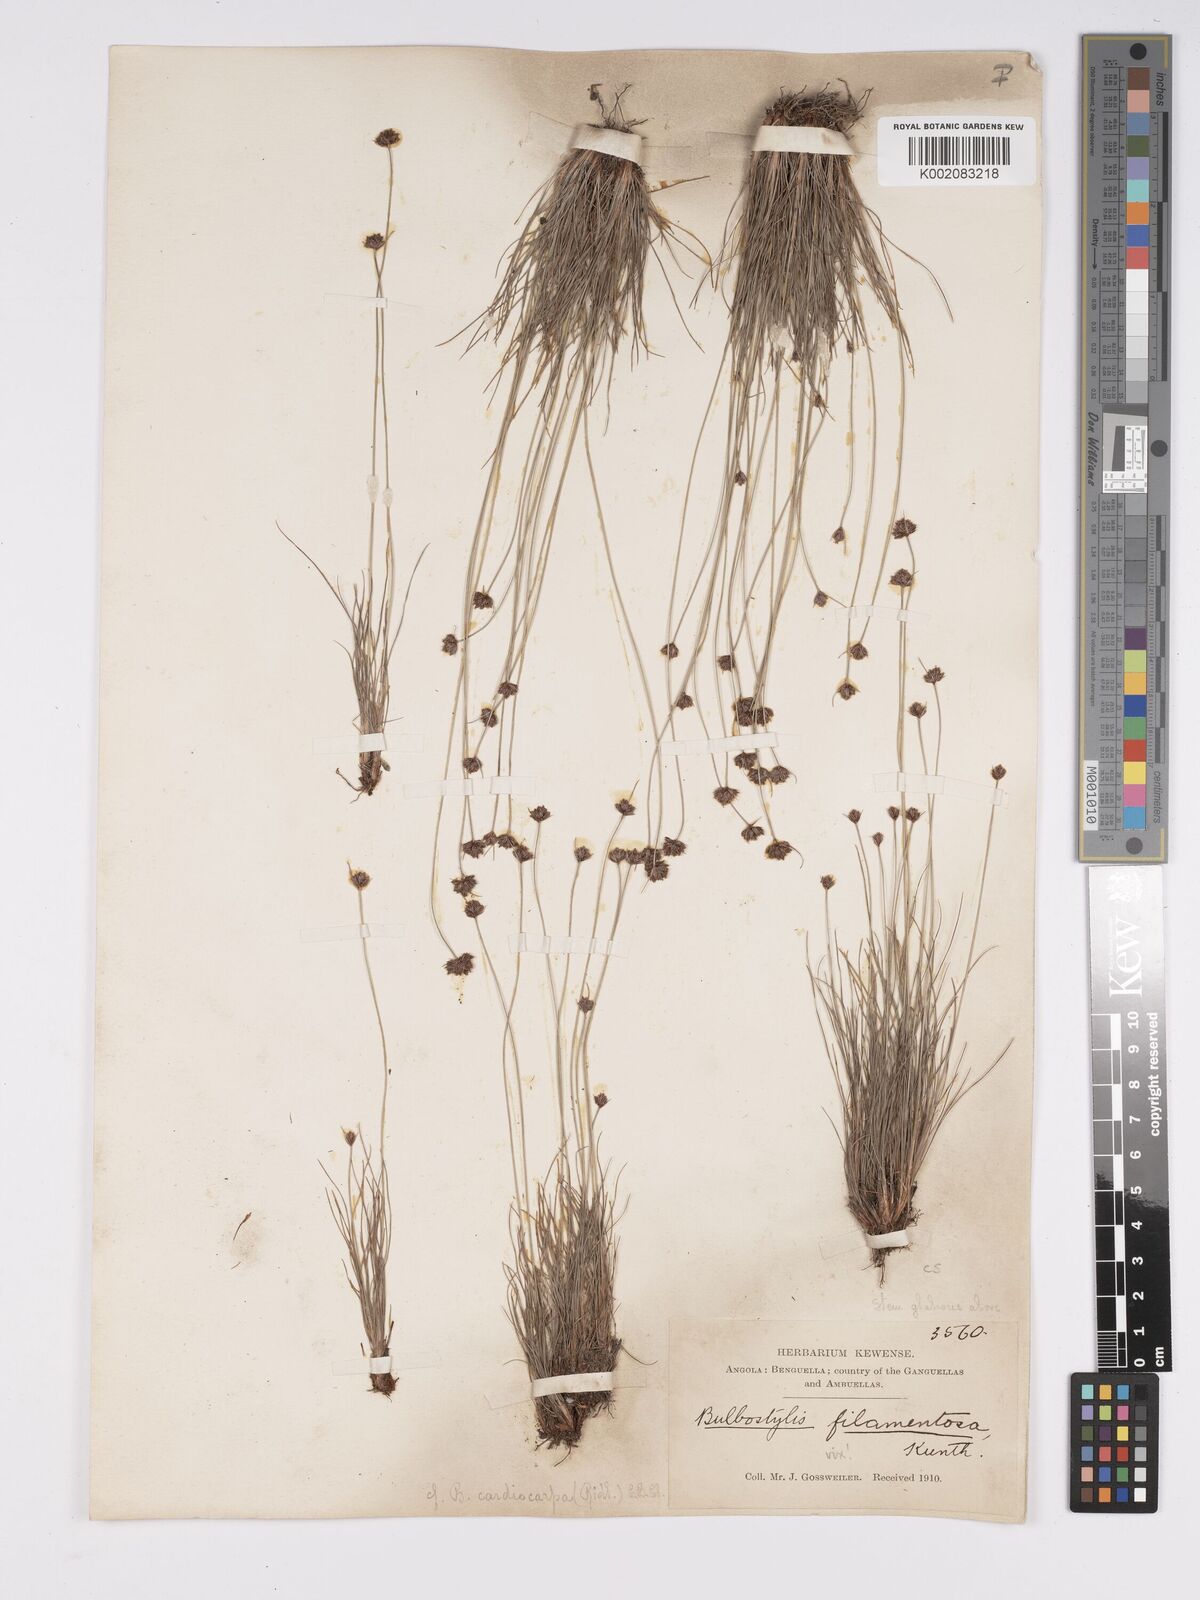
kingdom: Plantae
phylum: Tracheophyta
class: Liliopsida
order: Poales
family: Cyperaceae
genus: Bulbostylis
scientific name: Bulbostylis filamentosa
